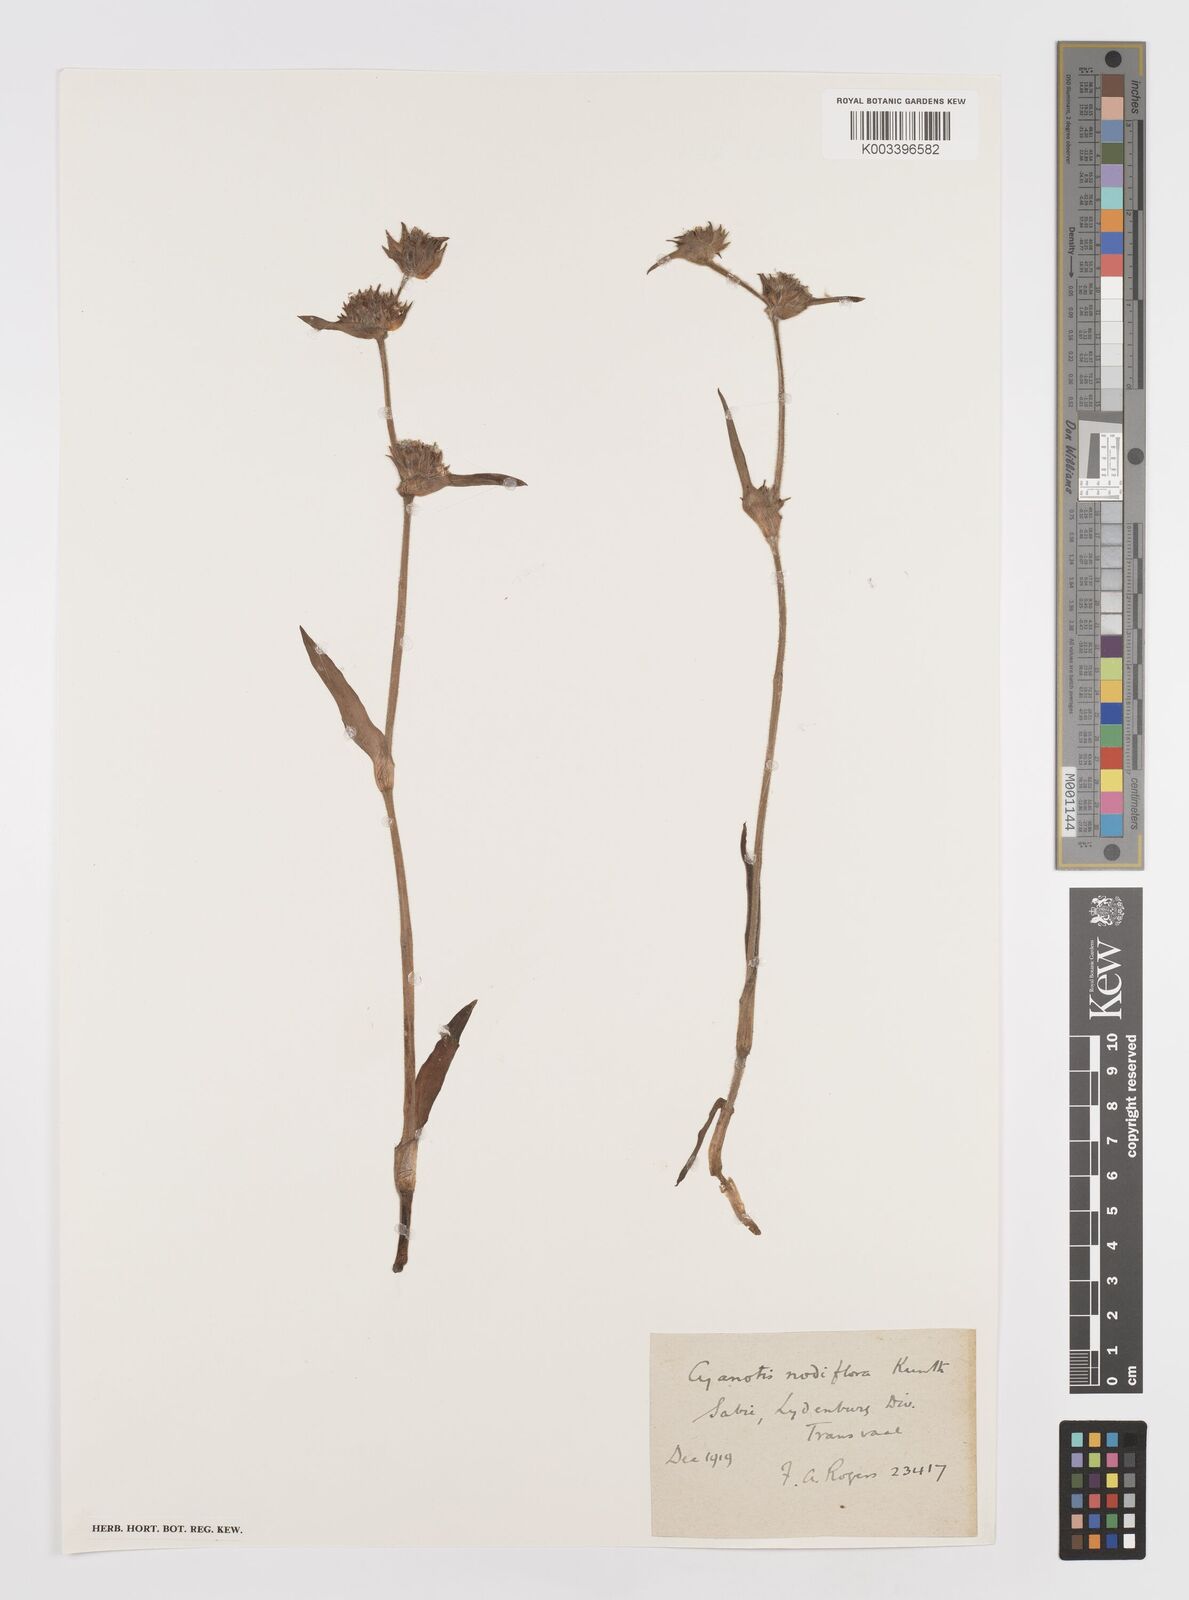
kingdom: Plantae
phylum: Tracheophyta
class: Liliopsida
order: Commelinales
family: Commelinaceae
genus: Cyanotis
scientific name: Cyanotis speciosa
